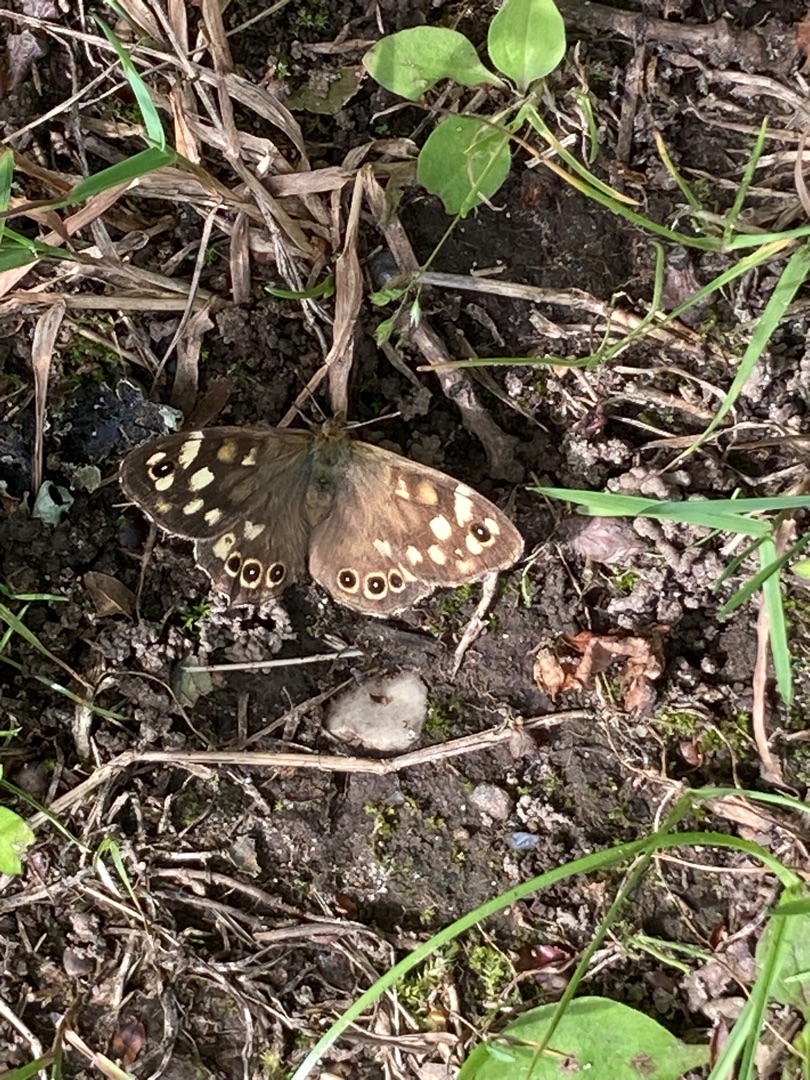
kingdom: Animalia
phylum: Arthropoda
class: Insecta
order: Lepidoptera
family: Nymphalidae
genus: Pararge
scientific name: Pararge aegeria
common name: Skovrandøje
